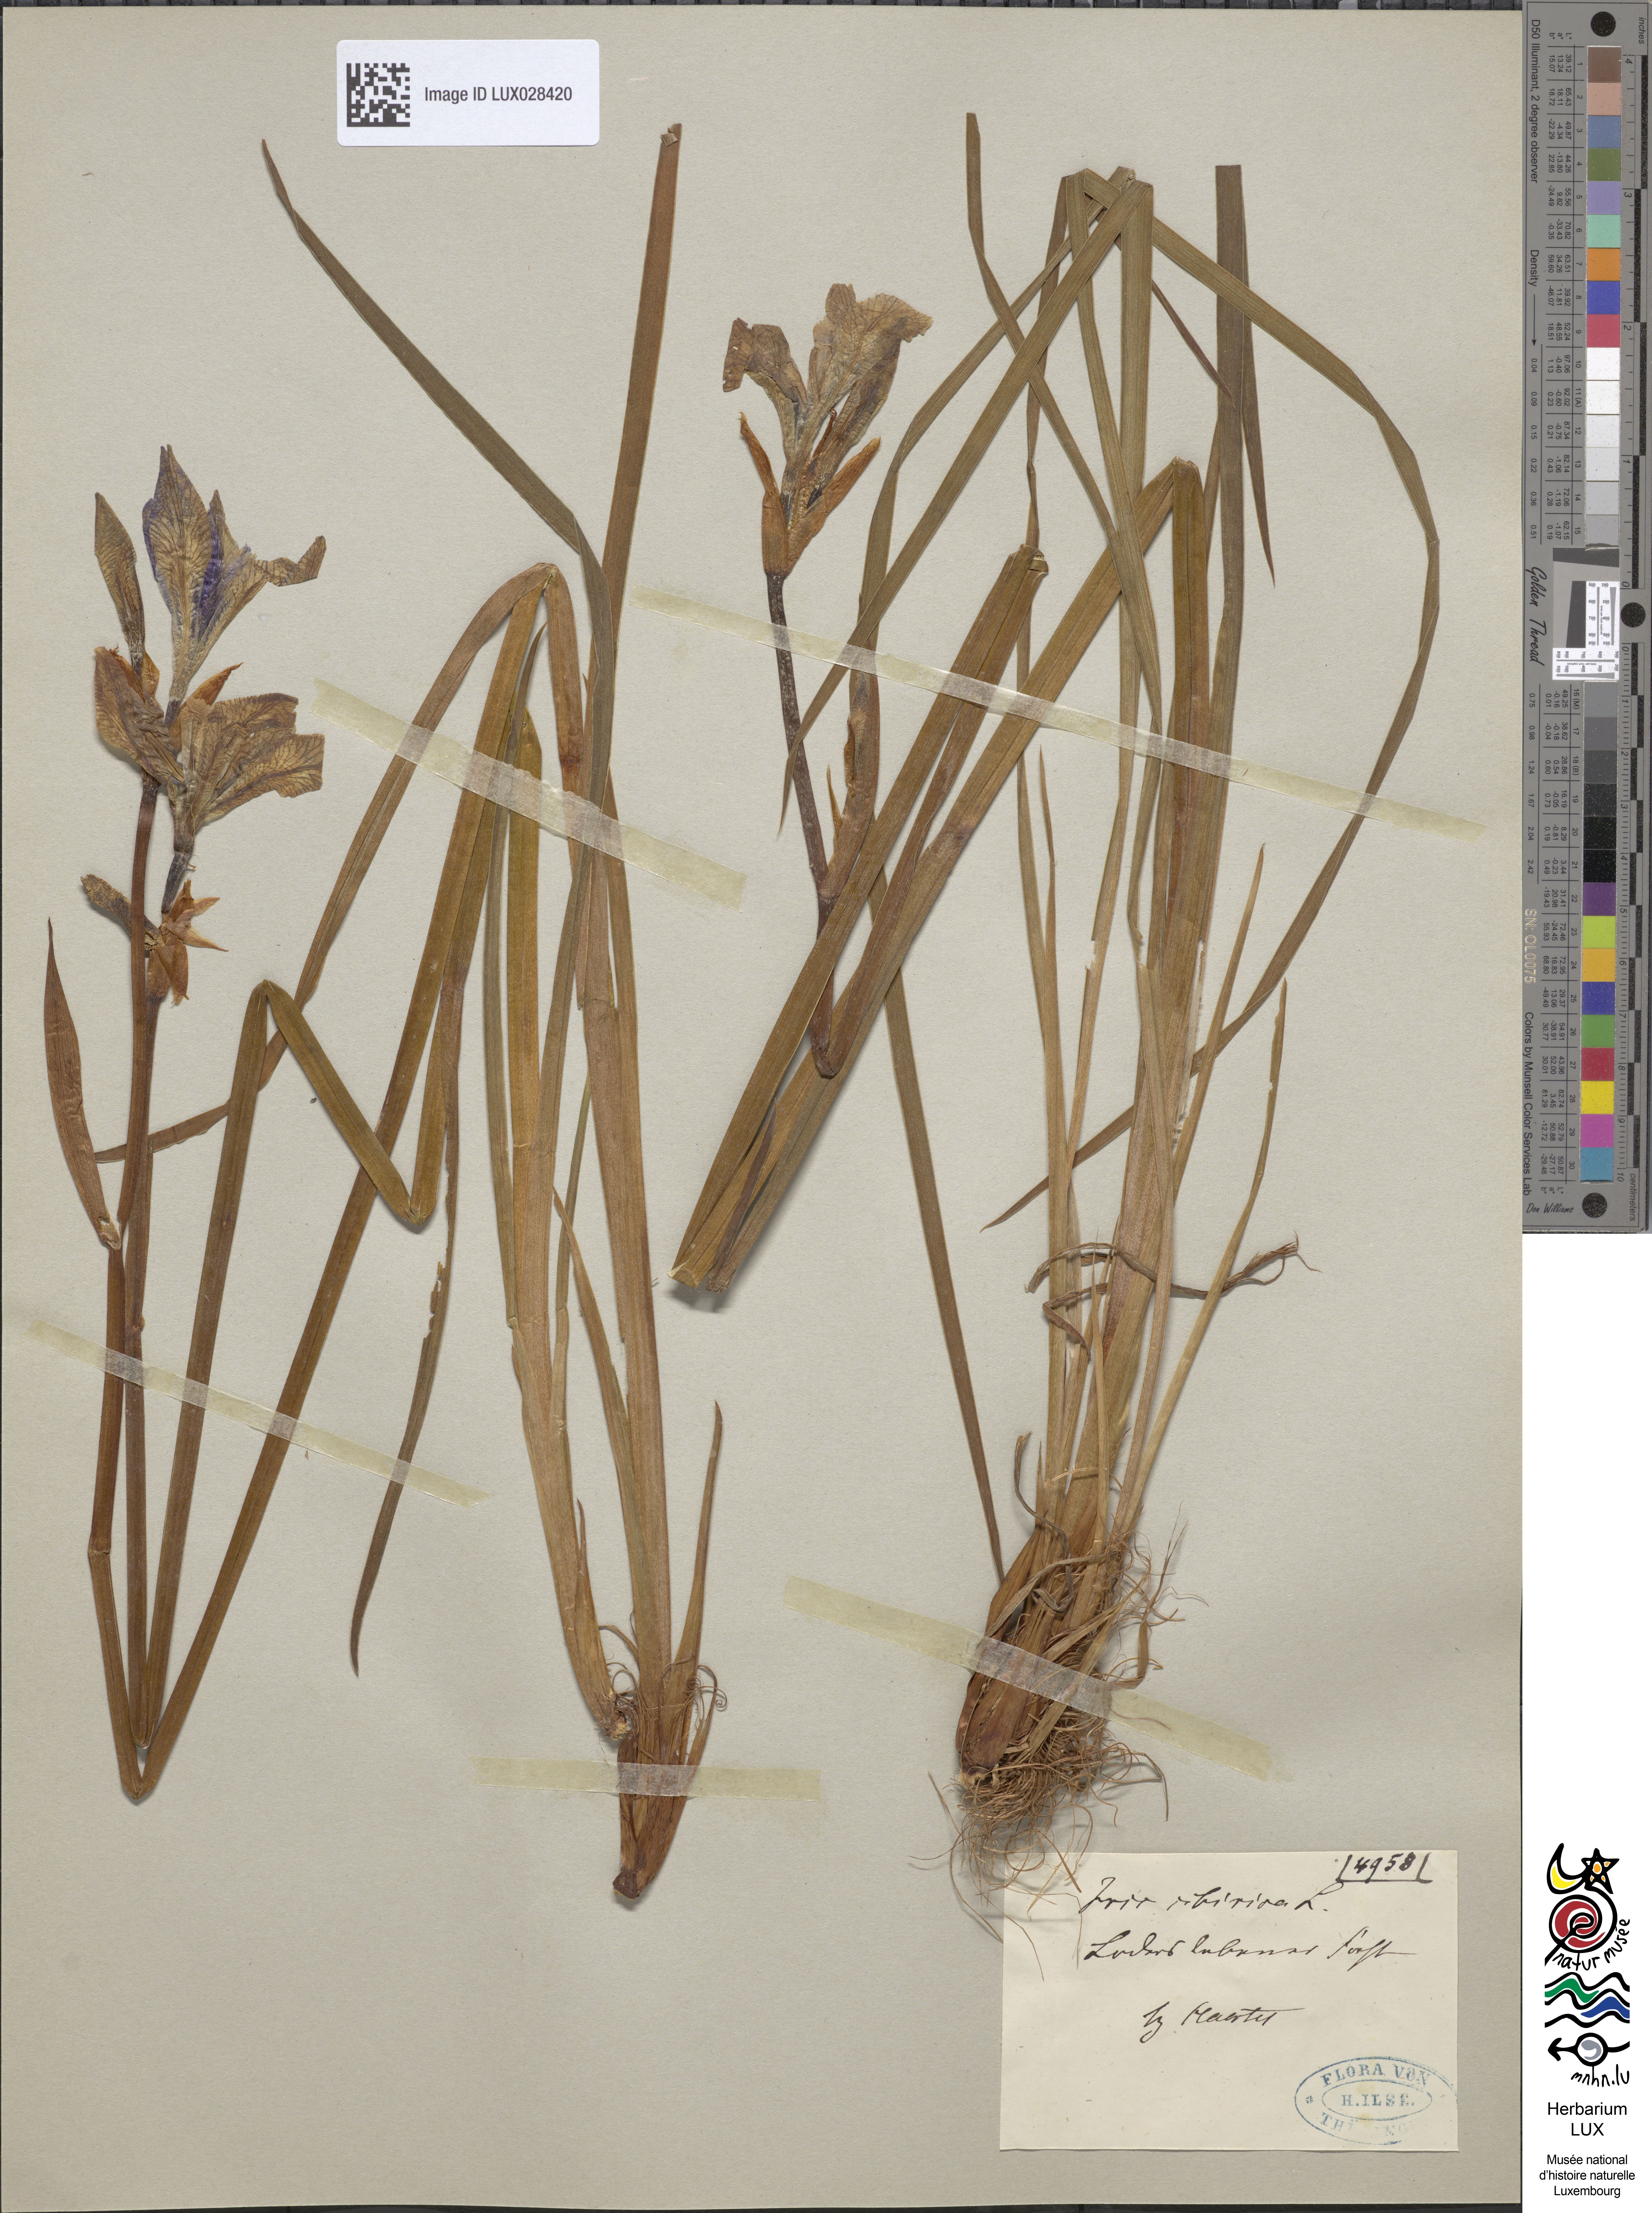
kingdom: Animalia
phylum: Arthropoda
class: Insecta
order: Mantodea
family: Eremiaphilidae
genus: Iris
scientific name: Iris
